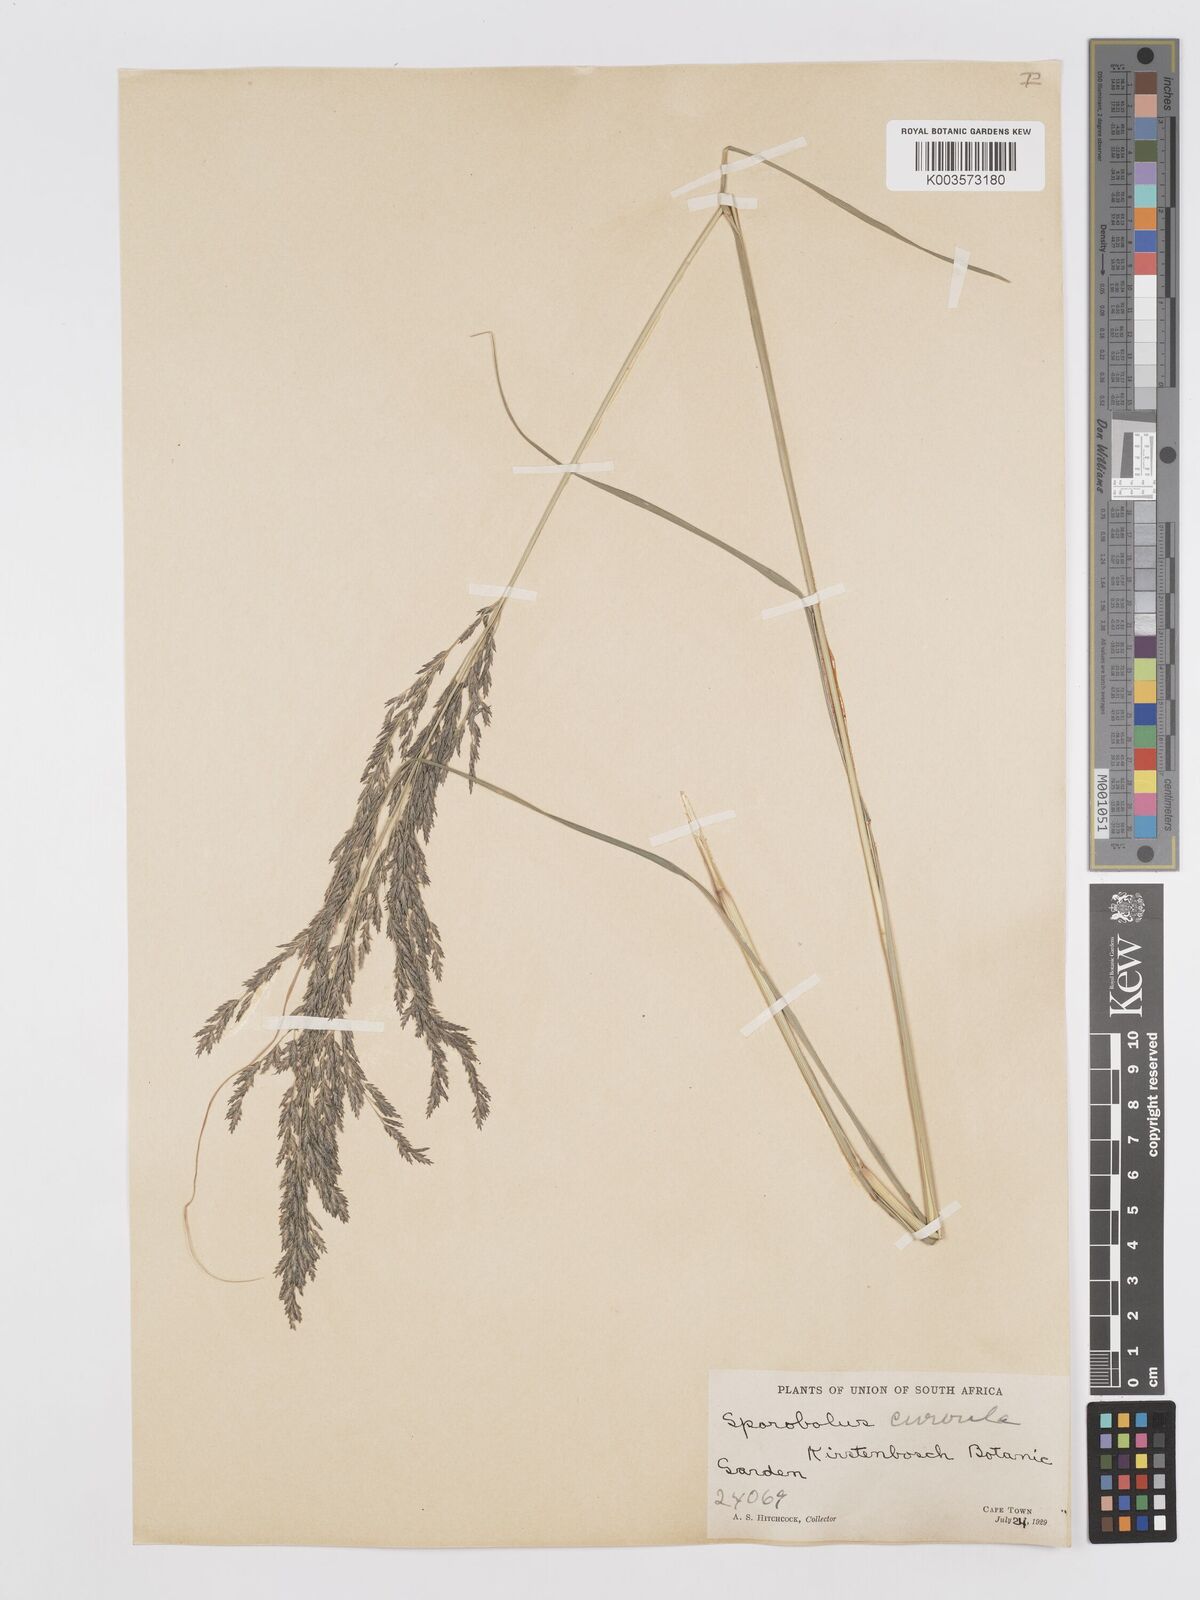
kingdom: Plantae
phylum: Tracheophyta
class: Liliopsida
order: Poales
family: Poaceae
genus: Eragrostis
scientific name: Eragrostis curvula
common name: African love-grass
